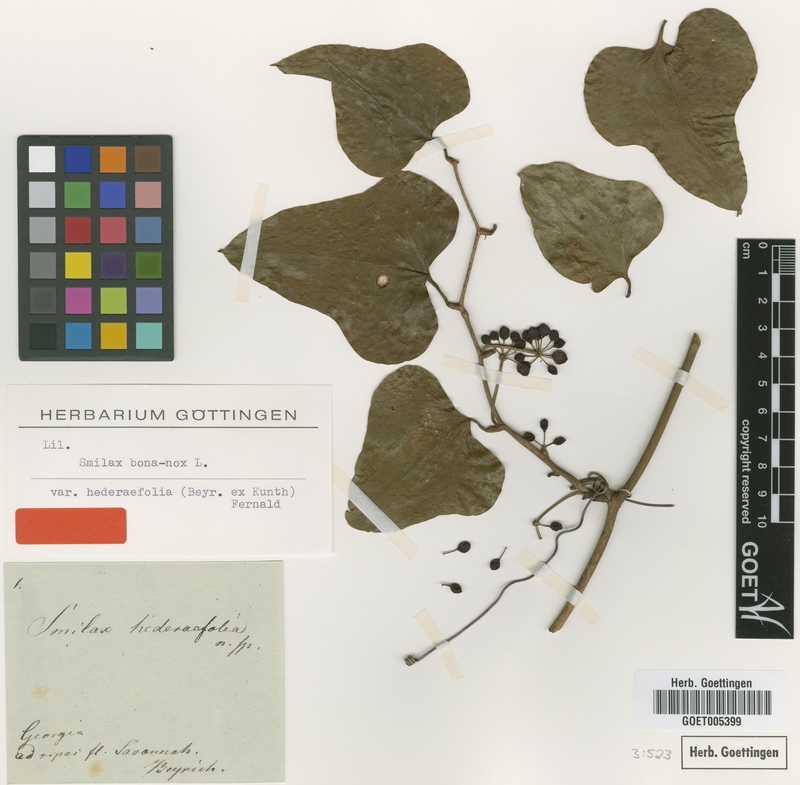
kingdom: Plantae
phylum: Tracheophyta
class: Liliopsida
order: Liliales
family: Smilacaceae
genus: Smilax
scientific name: Smilax bona-nox
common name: Catbrier
